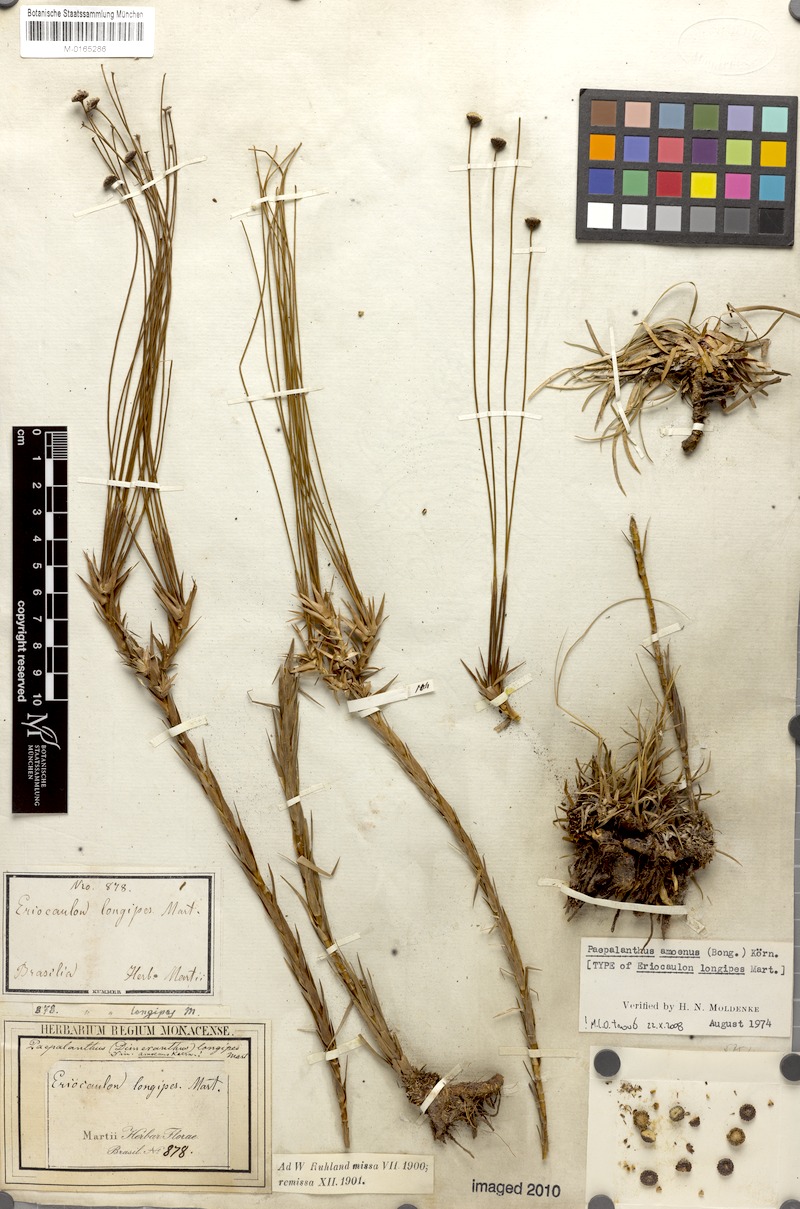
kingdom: Plantae
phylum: Tracheophyta
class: Liliopsida
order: Poales
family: Eriocaulaceae
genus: Paepalanthus
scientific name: Paepalanthus amoenus
